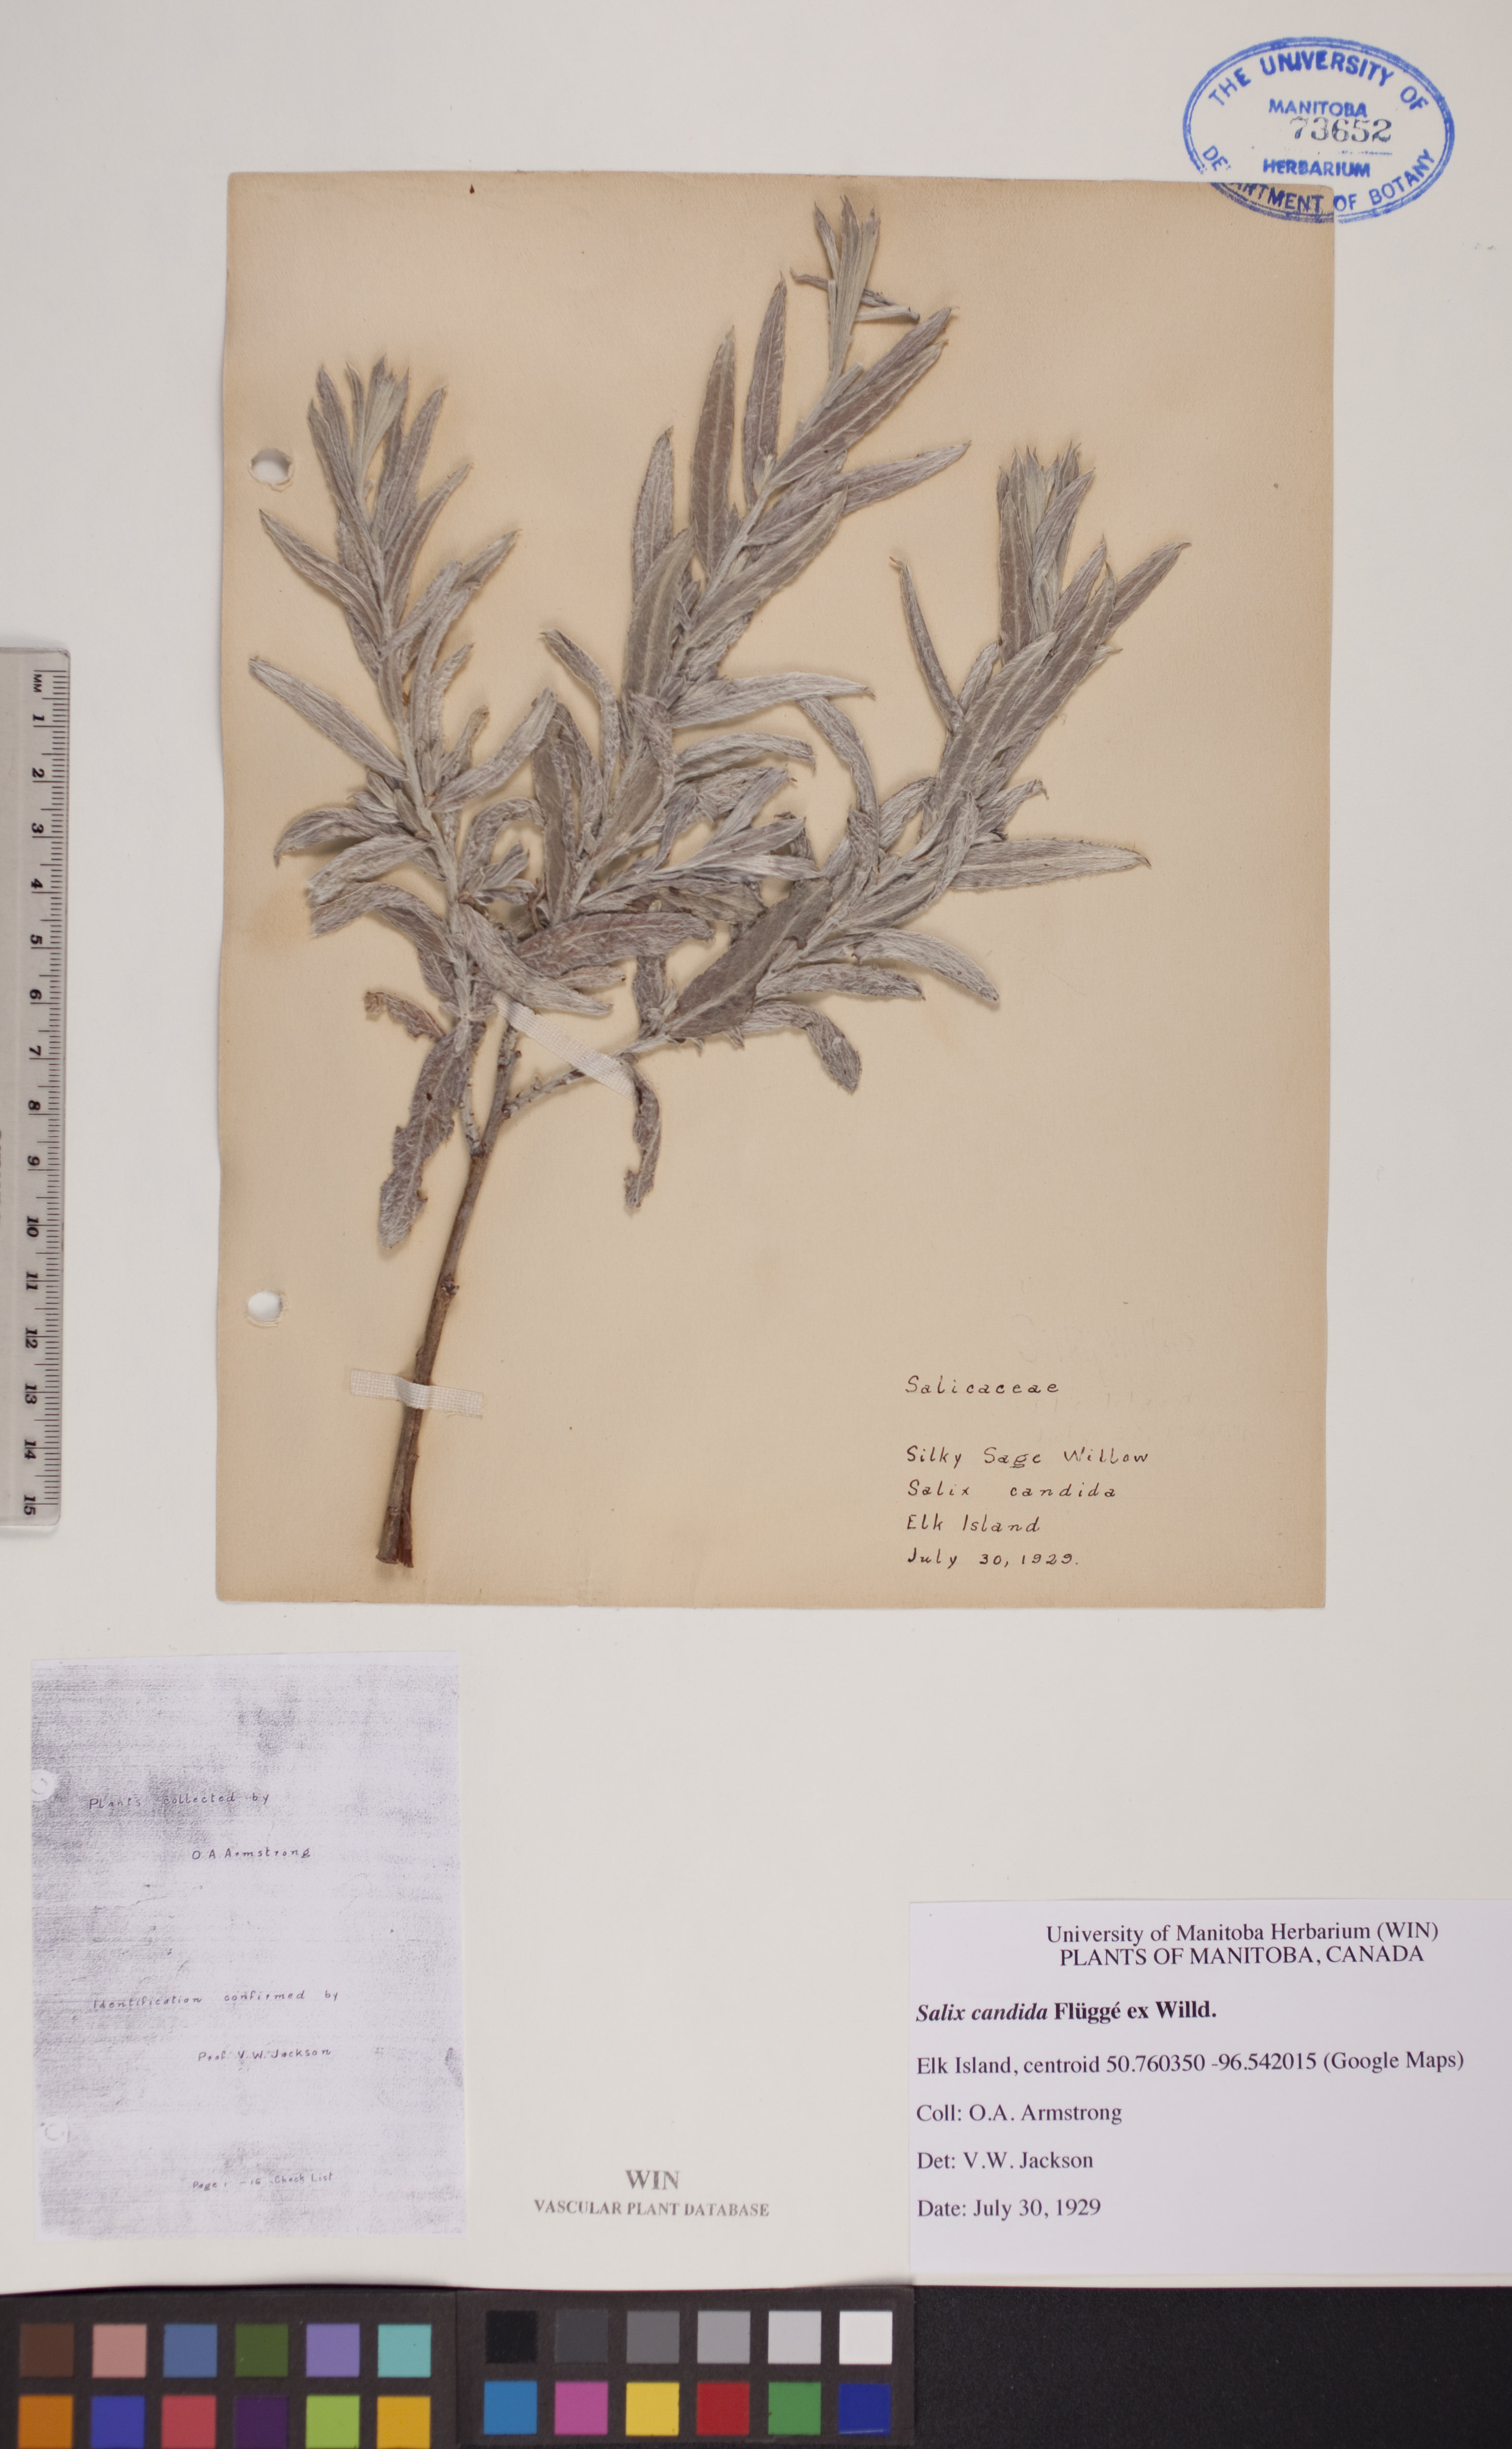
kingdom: Plantae
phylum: Tracheophyta
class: Magnoliopsida
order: Malpighiales
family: Salicaceae
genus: Salix
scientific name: Salix candida
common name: Hoary willow
